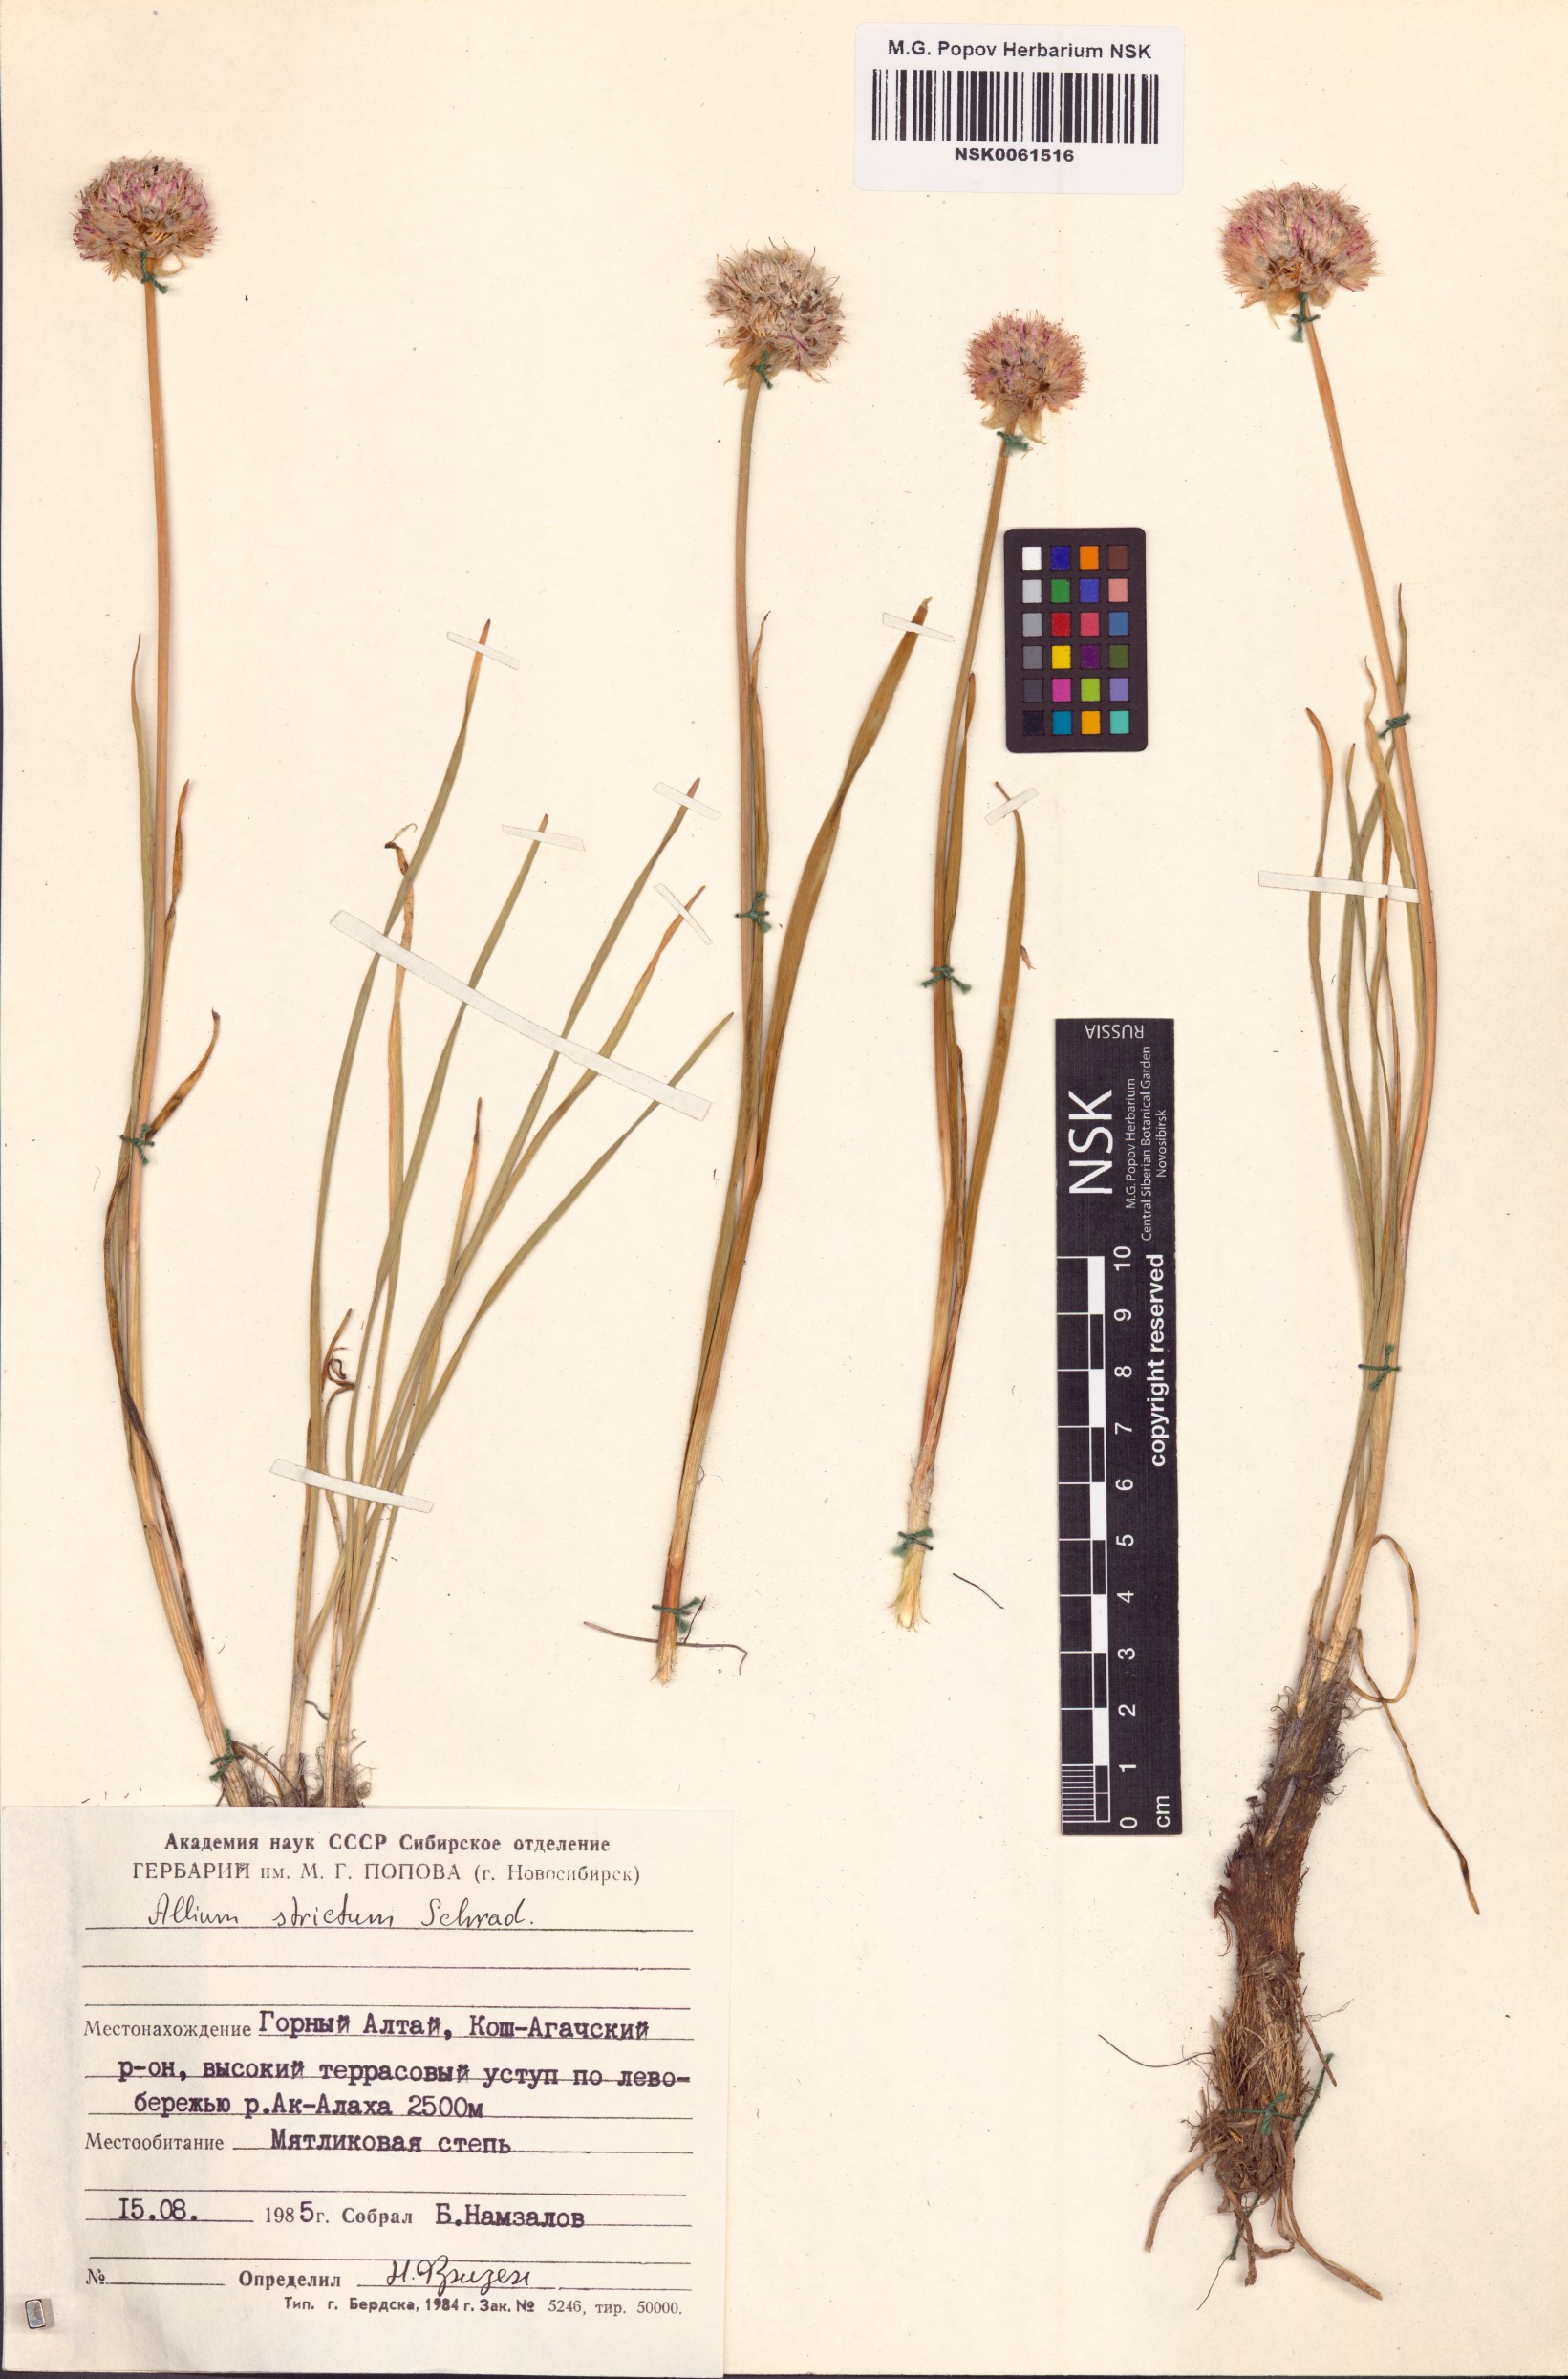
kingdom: Plantae
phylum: Tracheophyta
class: Liliopsida
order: Asparagales
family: Amaryllidaceae
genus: Allium
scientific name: Allium strictum
